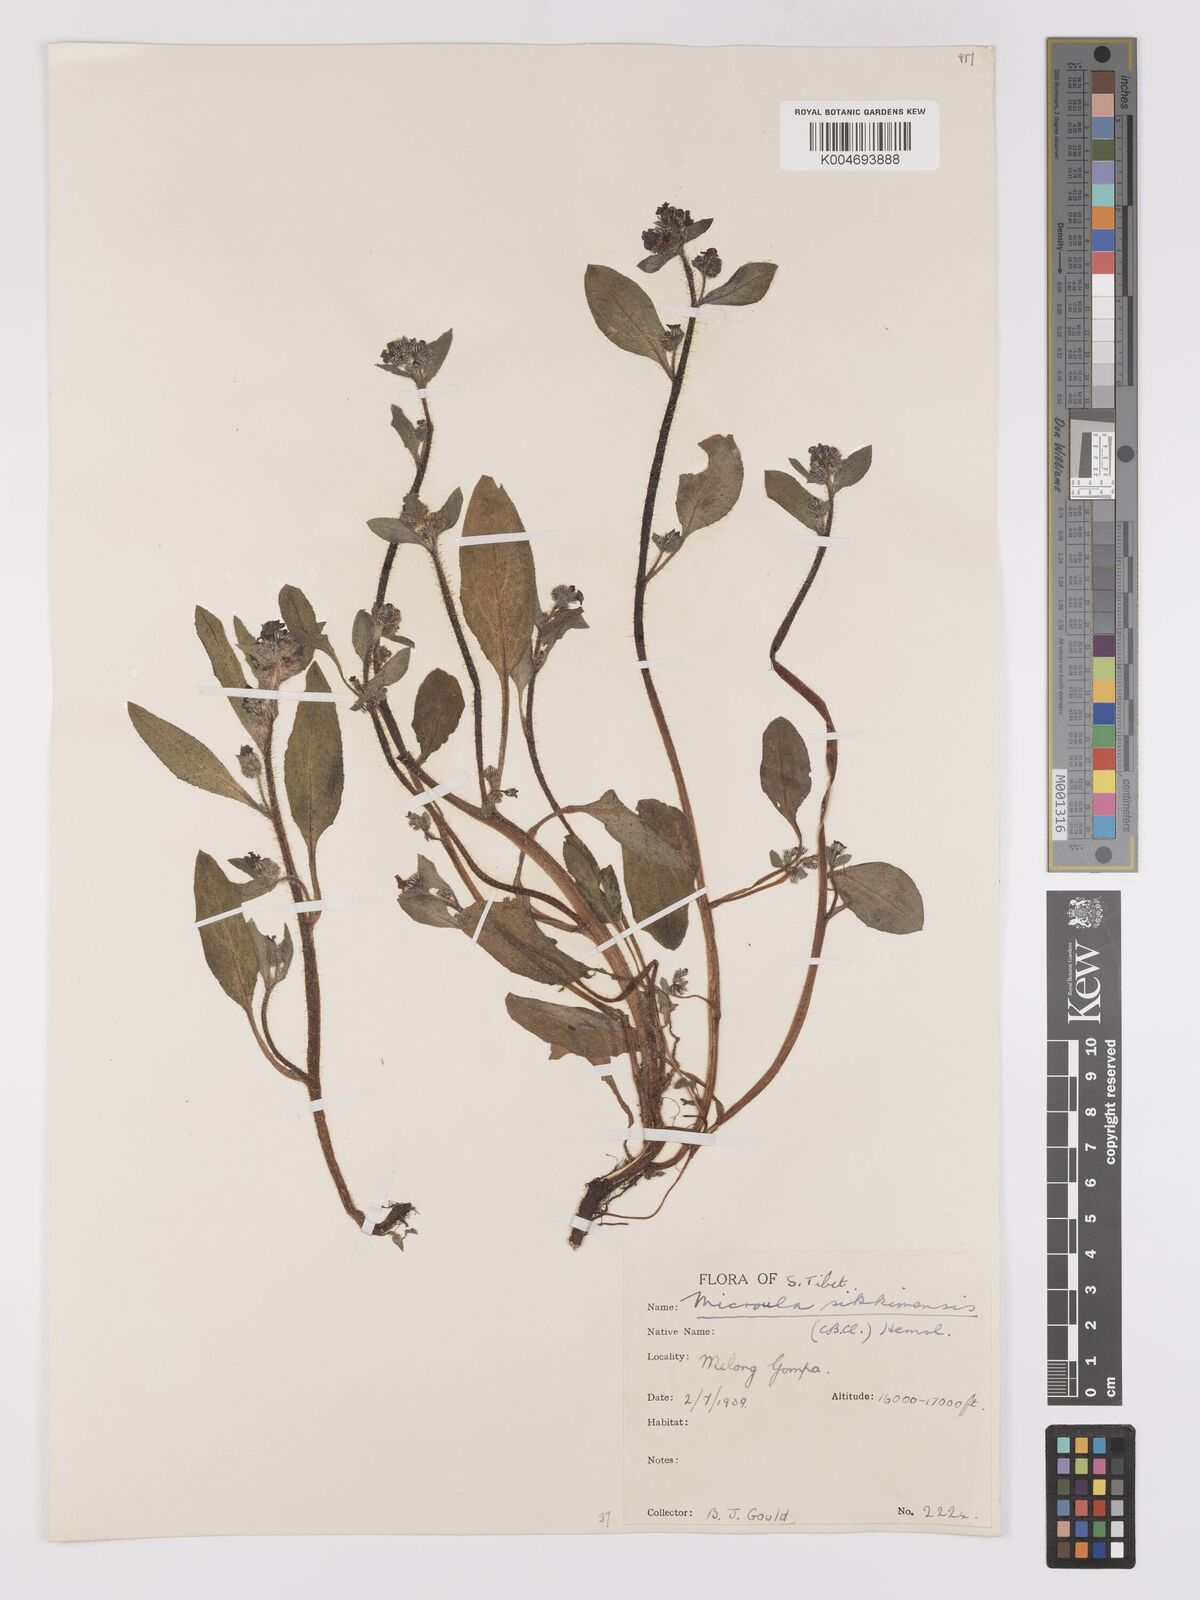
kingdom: Plantae
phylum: Tracheophyta
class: Magnoliopsida
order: Boraginales
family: Boraginaceae
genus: Microula
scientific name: Microula sikkimensis
